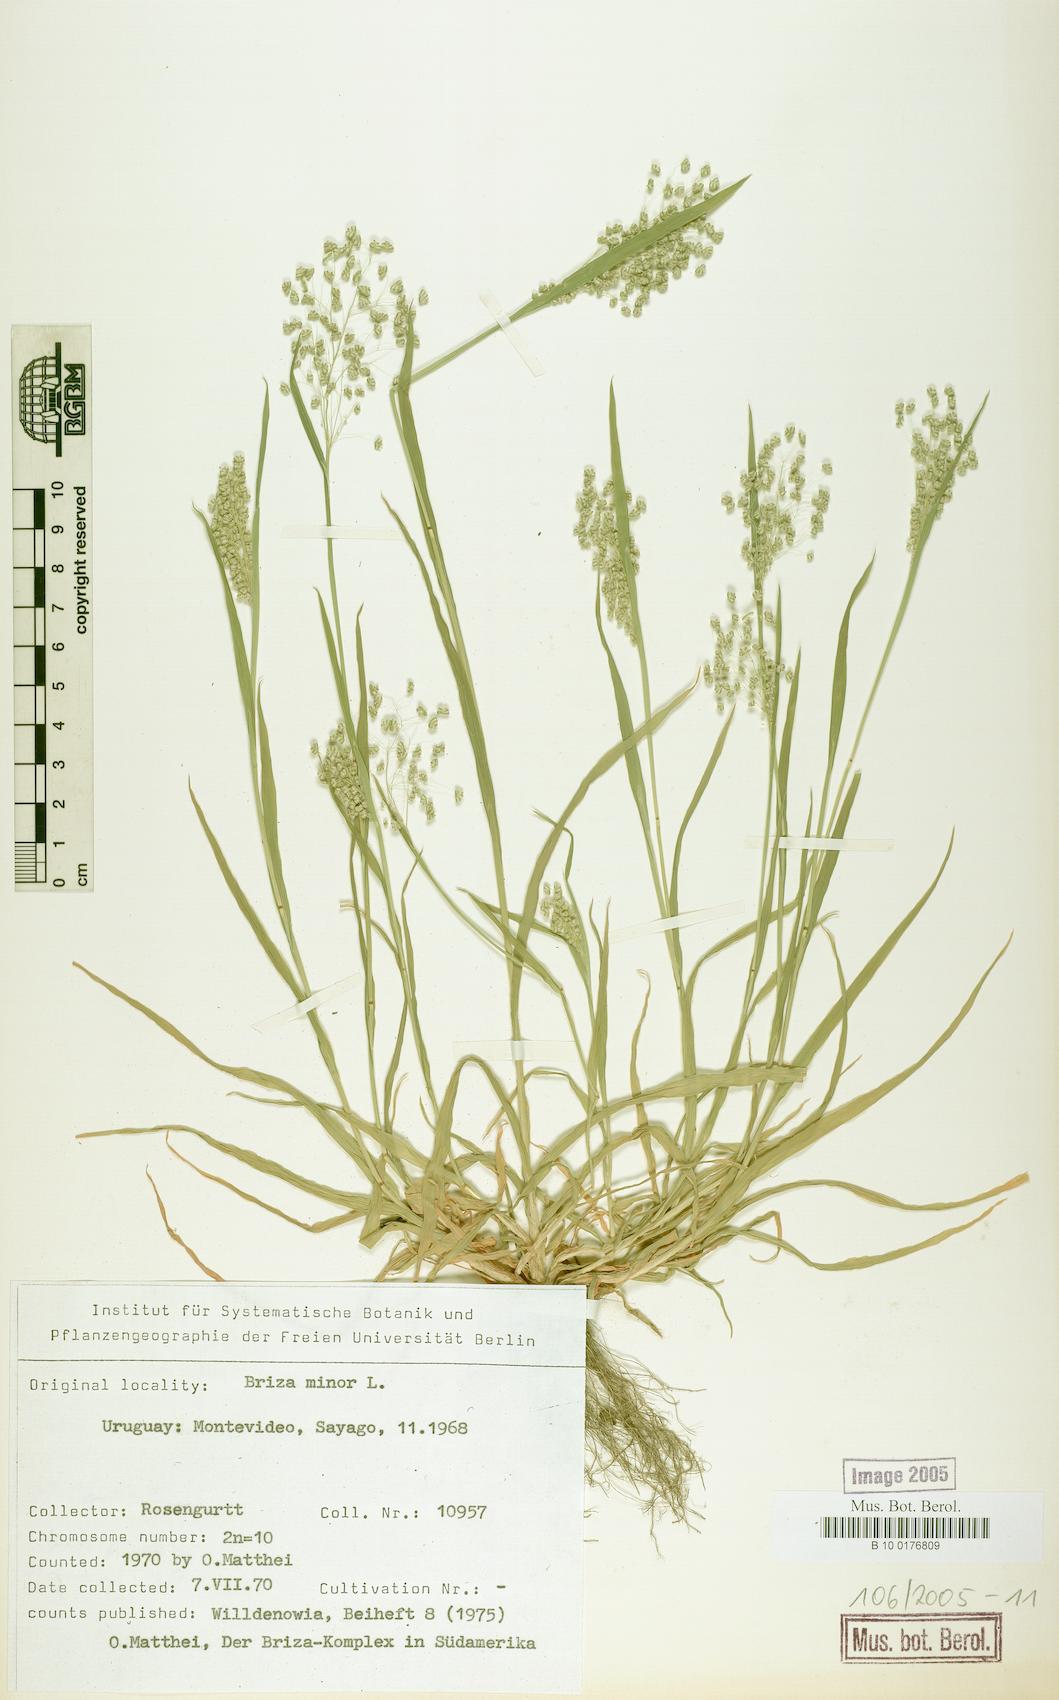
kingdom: Plantae
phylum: Tracheophyta
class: Liliopsida
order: Poales
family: Poaceae
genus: Briza
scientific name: Briza minor
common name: Lesser quaking-grass
